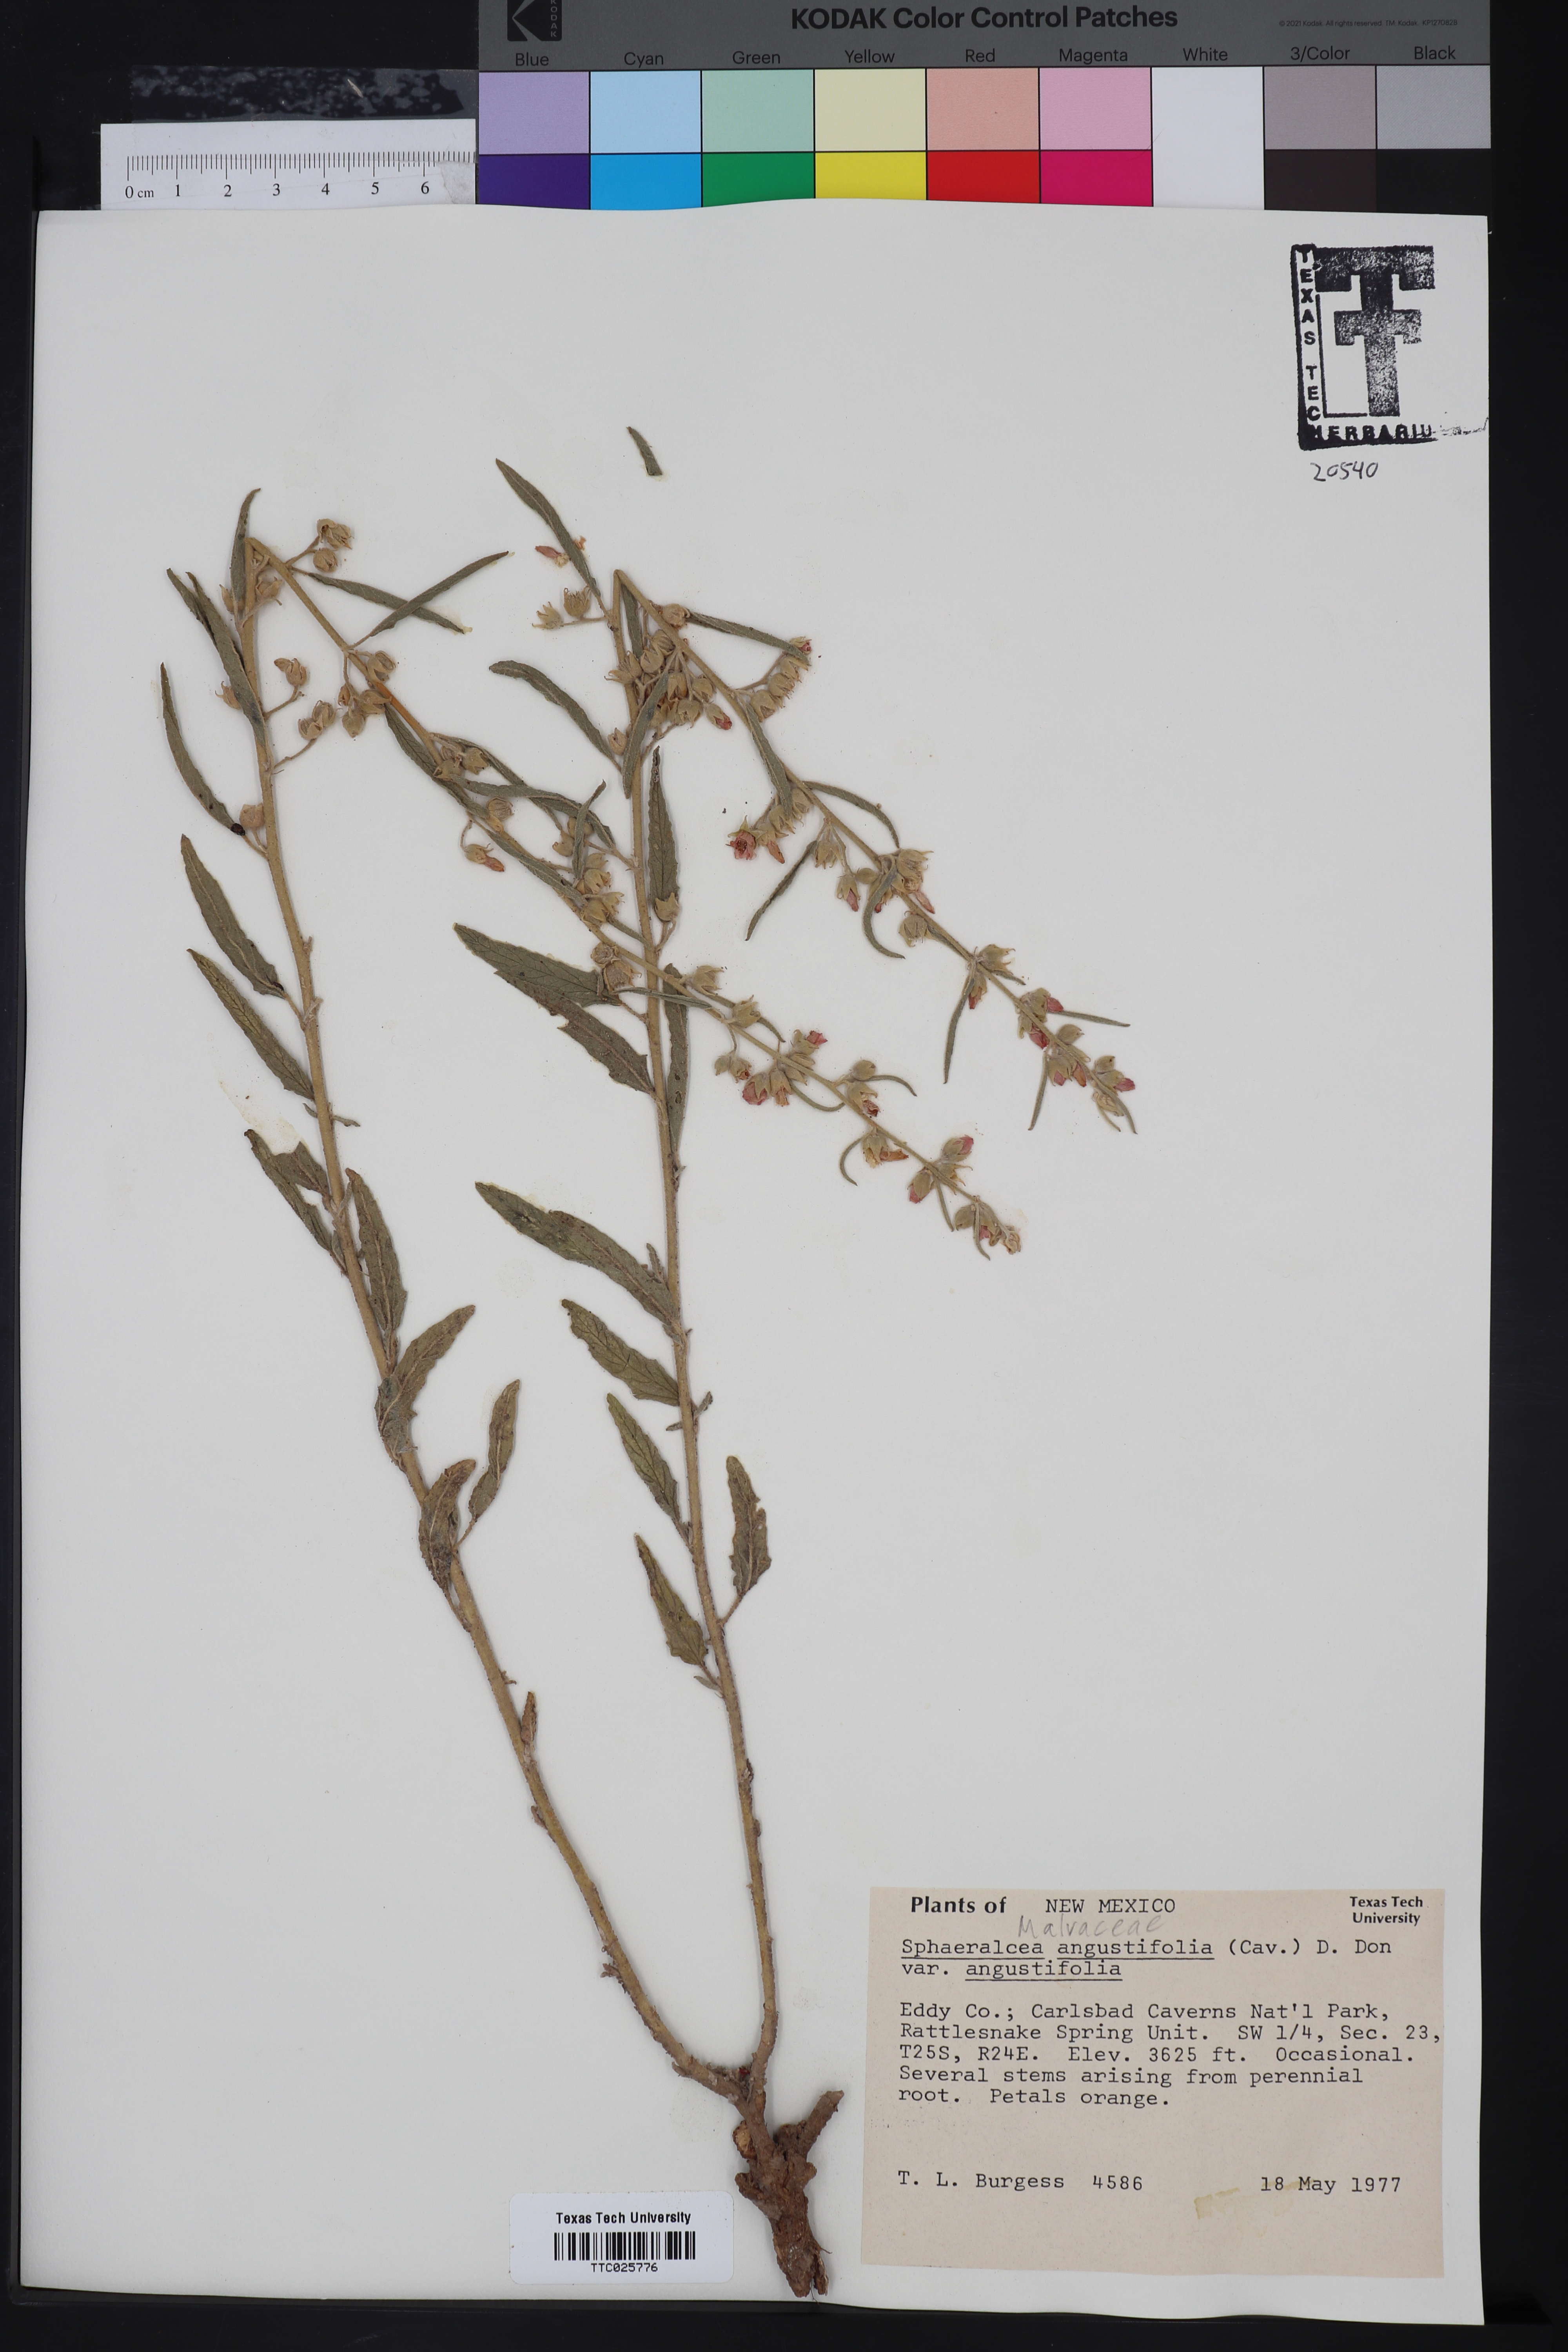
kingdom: Plantae
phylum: Tracheophyta
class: Magnoliopsida
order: Malvales
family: Malvaceae
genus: Sphaeralcea
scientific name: Sphaeralcea angustifolia
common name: Copper globe-mallow
